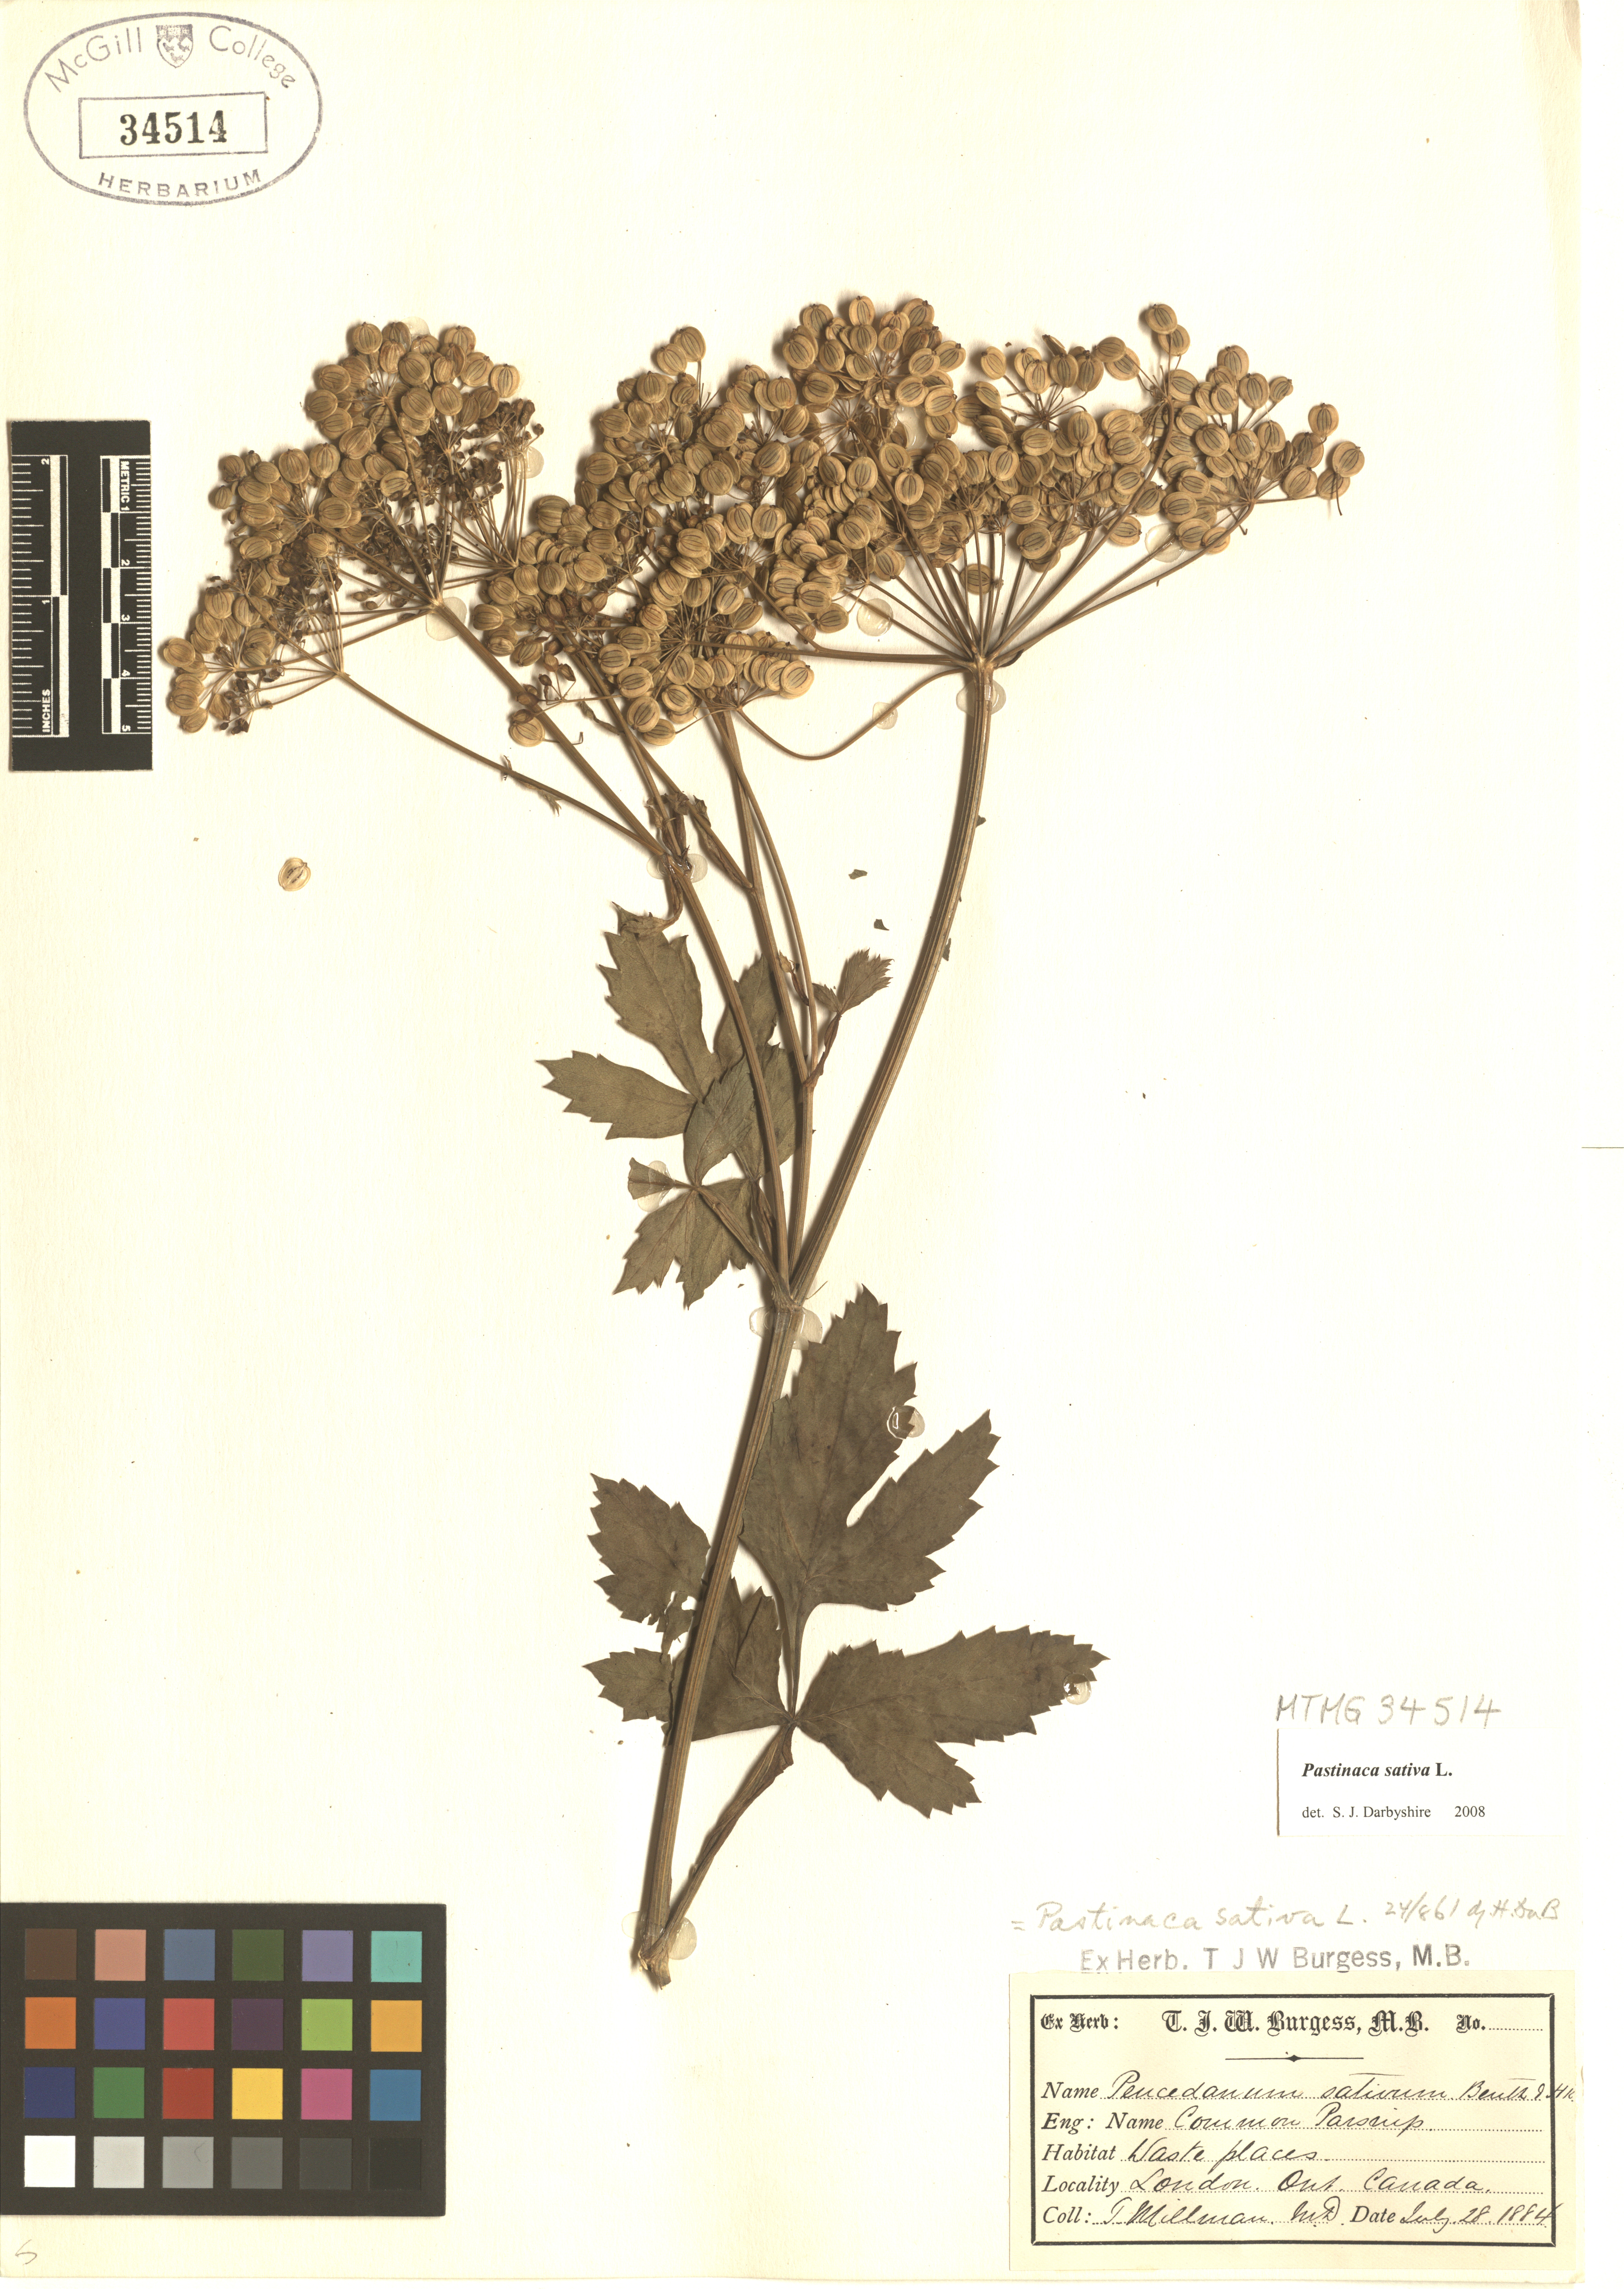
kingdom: Plantae
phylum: Tracheophyta
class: Magnoliopsida
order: Apiales
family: Apiaceae
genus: Pastinaca
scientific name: Pastinaca sativa
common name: Wild parsnip
